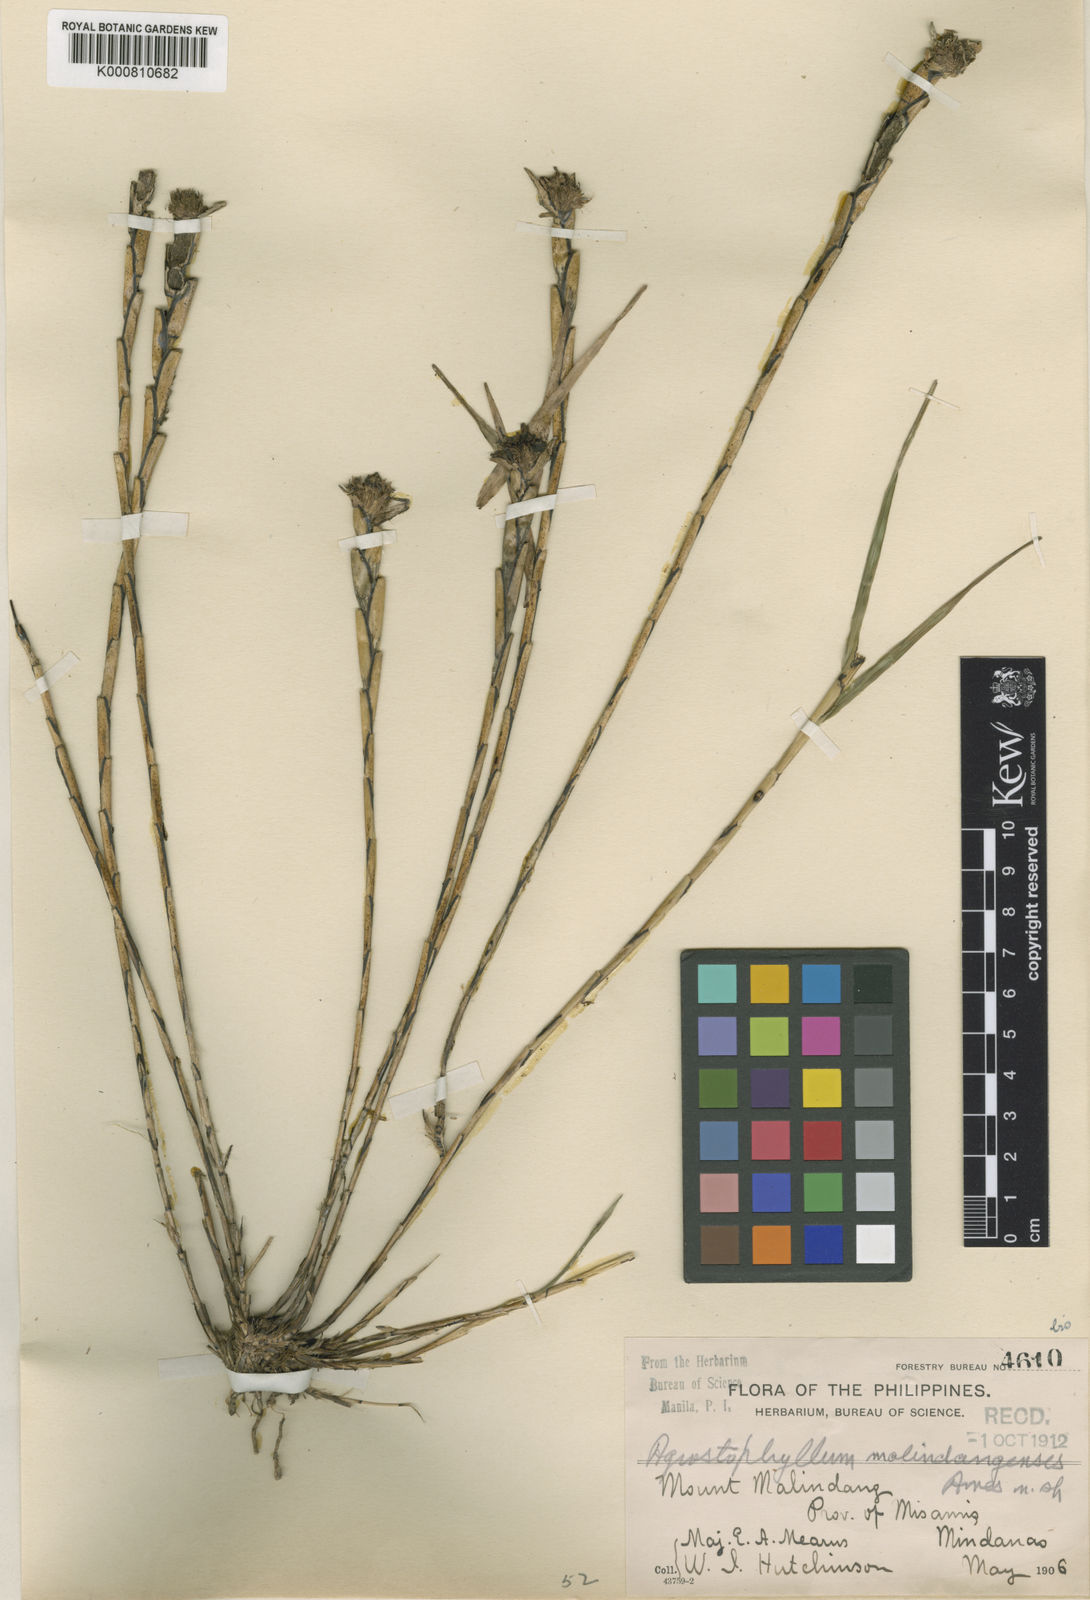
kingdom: Plantae
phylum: Tracheophyta
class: Liliopsida
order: Asparagales
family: Orchidaceae
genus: Agrostophyllum
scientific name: Agrostophyllum malindangense
